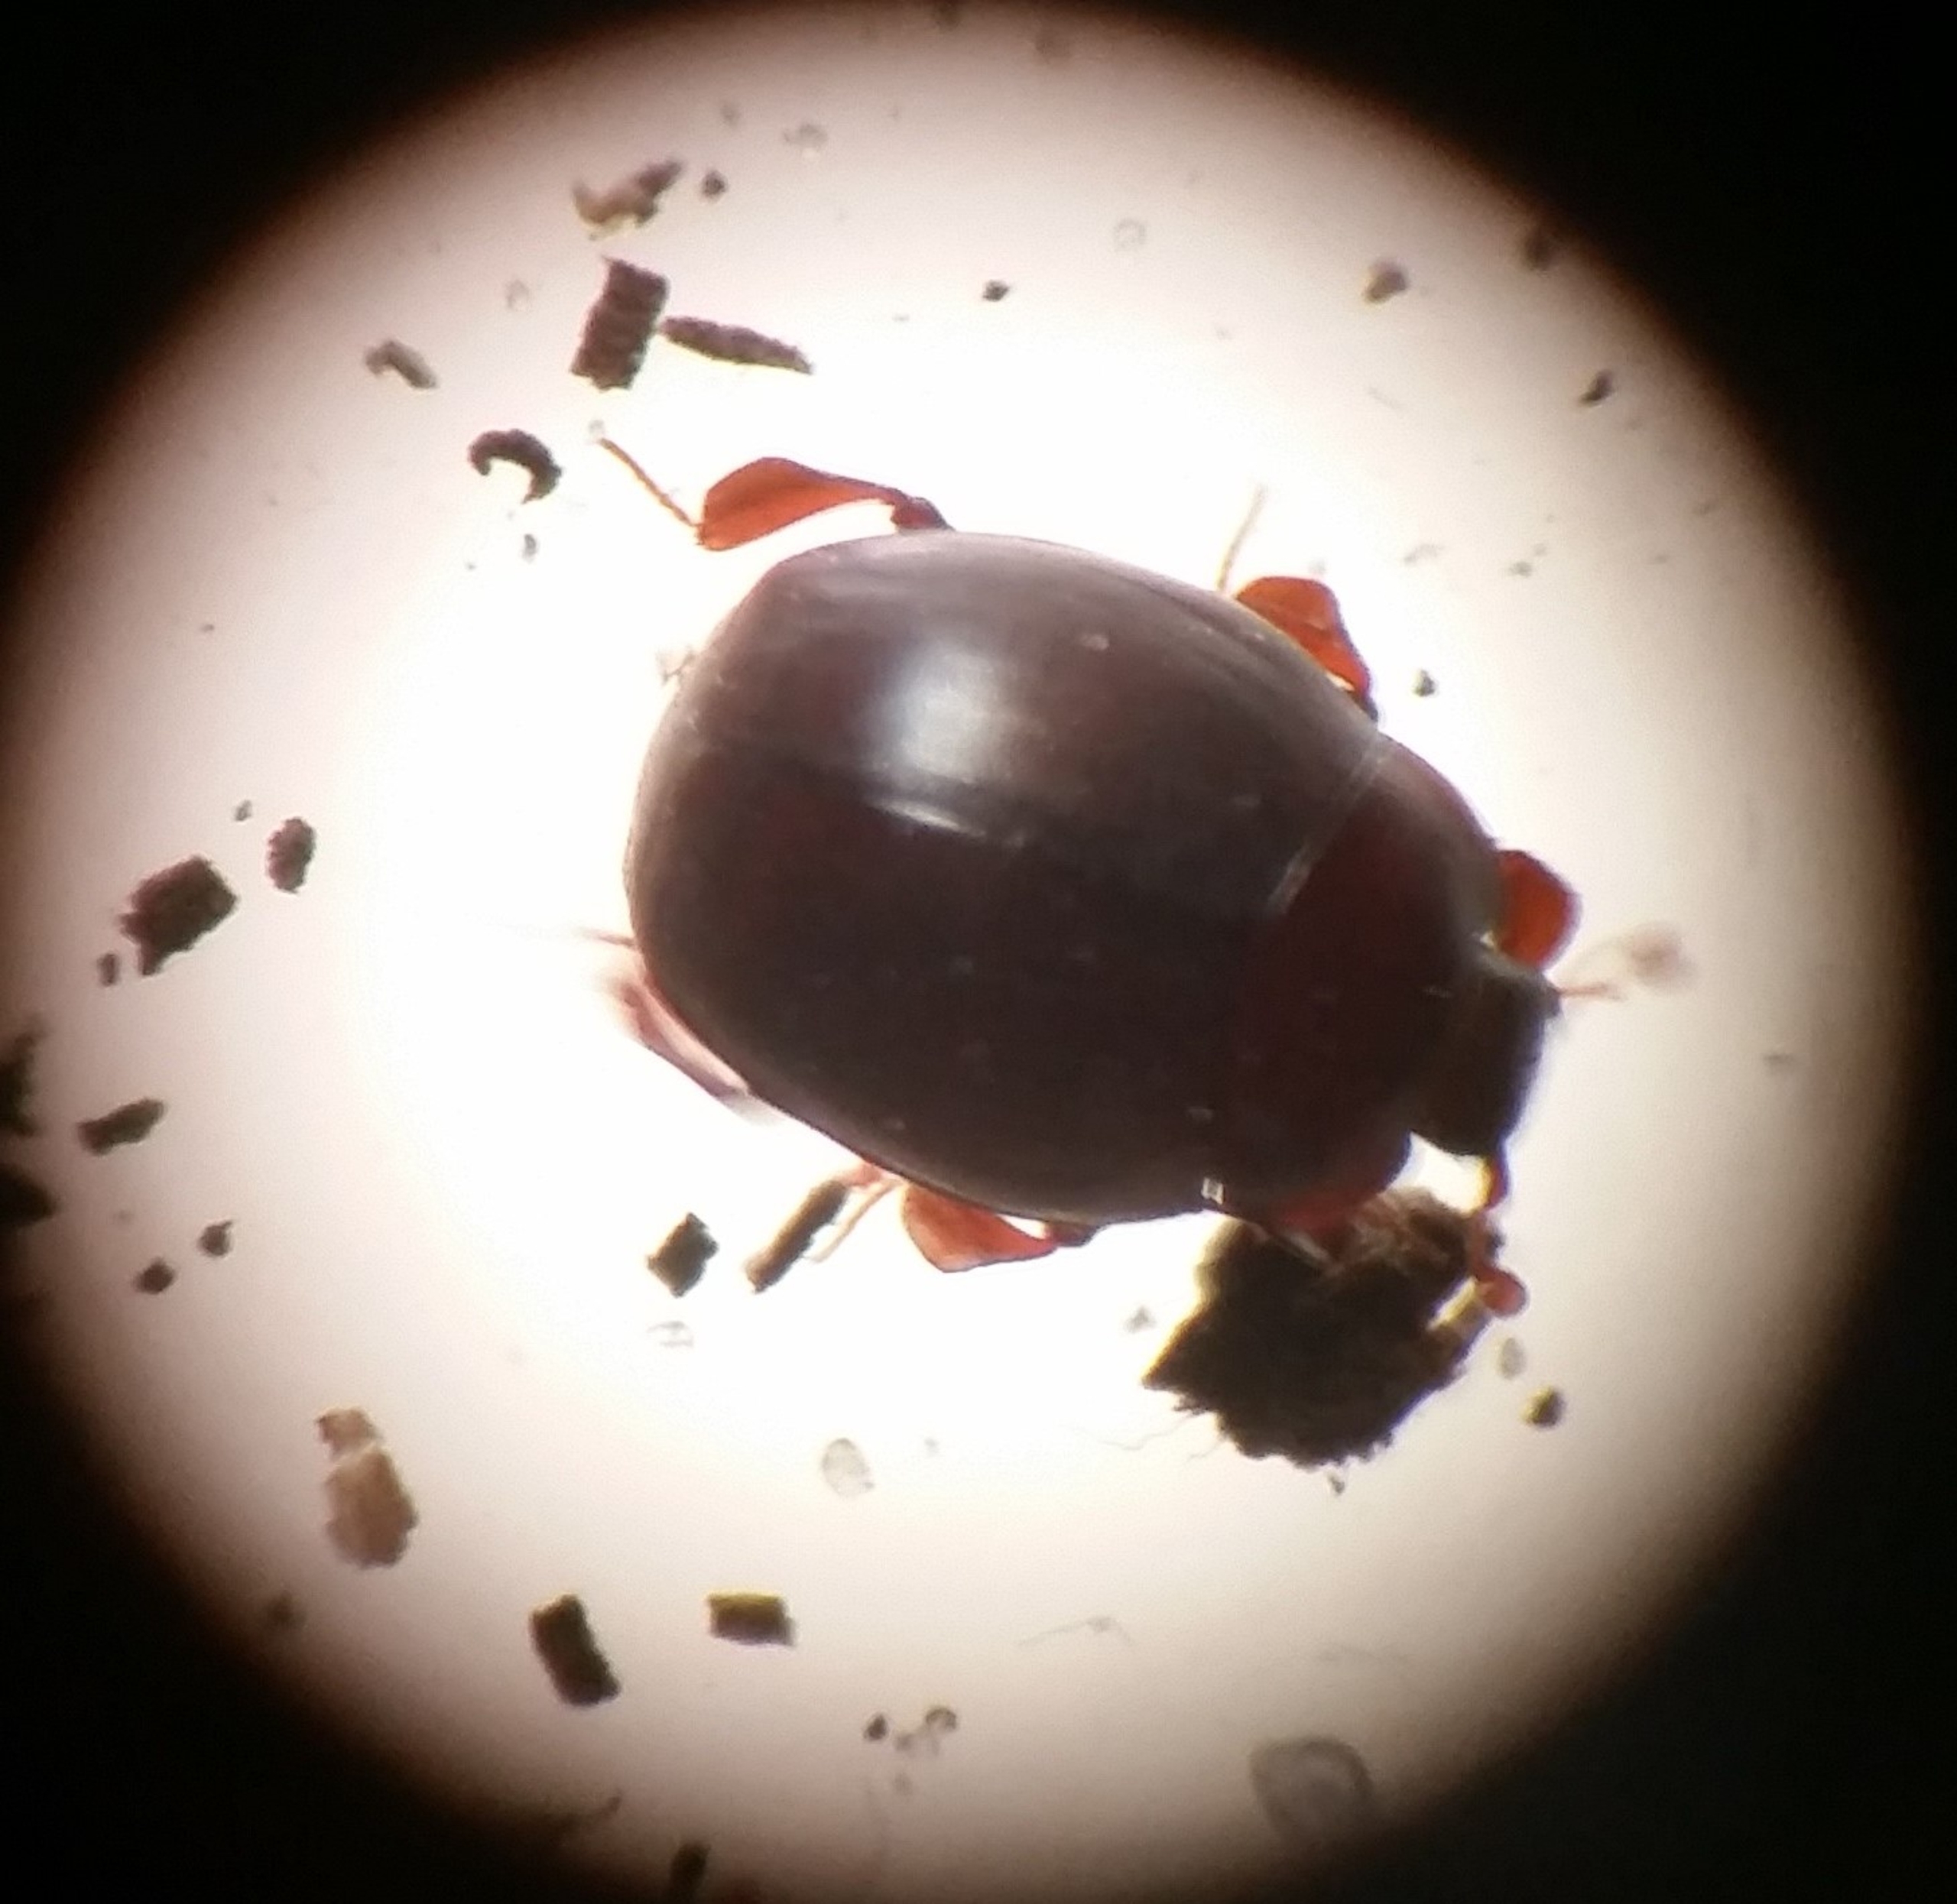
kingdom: Animalia
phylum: Arthropoda
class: Insecta
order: Coleoptera
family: Histeridae
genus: Dendrophilus
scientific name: Dendrophilus pygmaeus
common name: Brunlig jordstumpbille
